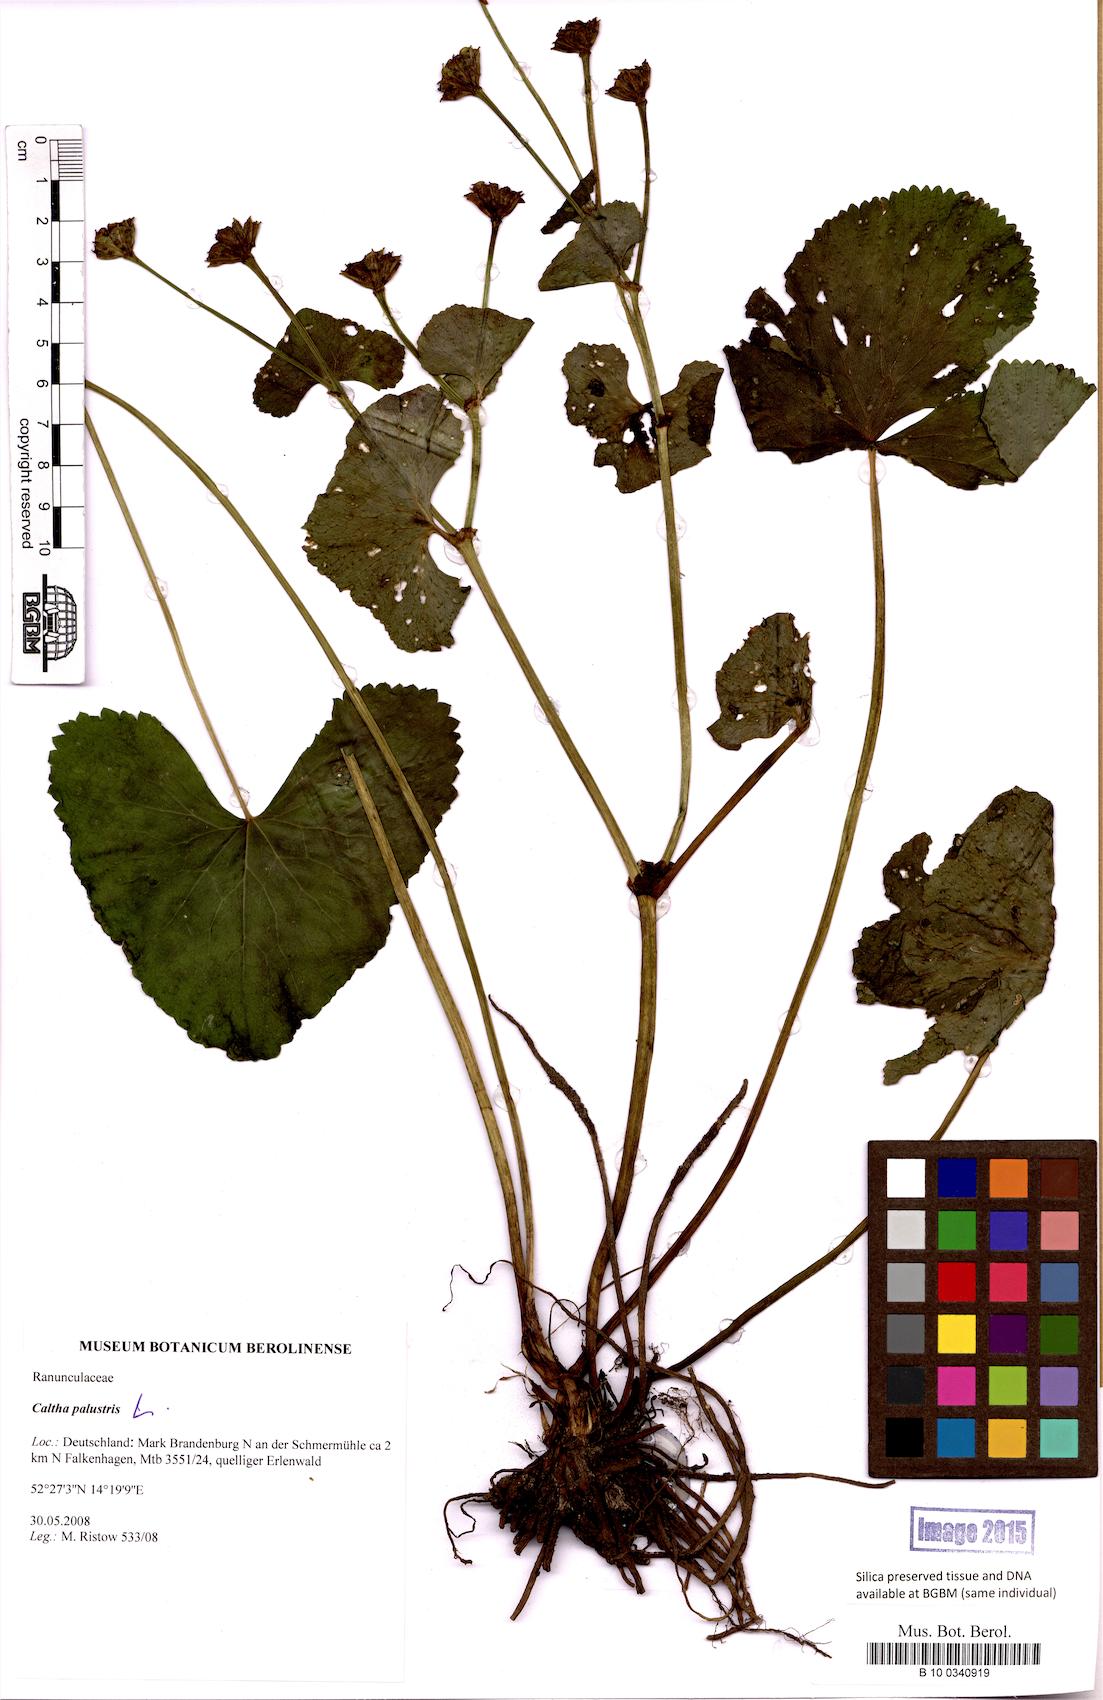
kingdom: Plantae
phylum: Tracheophyta
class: Magnoliopsida
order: Ranunculales
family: Ranunculaceae
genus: Caltha
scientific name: Caltha palustris
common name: Marsh marigold
